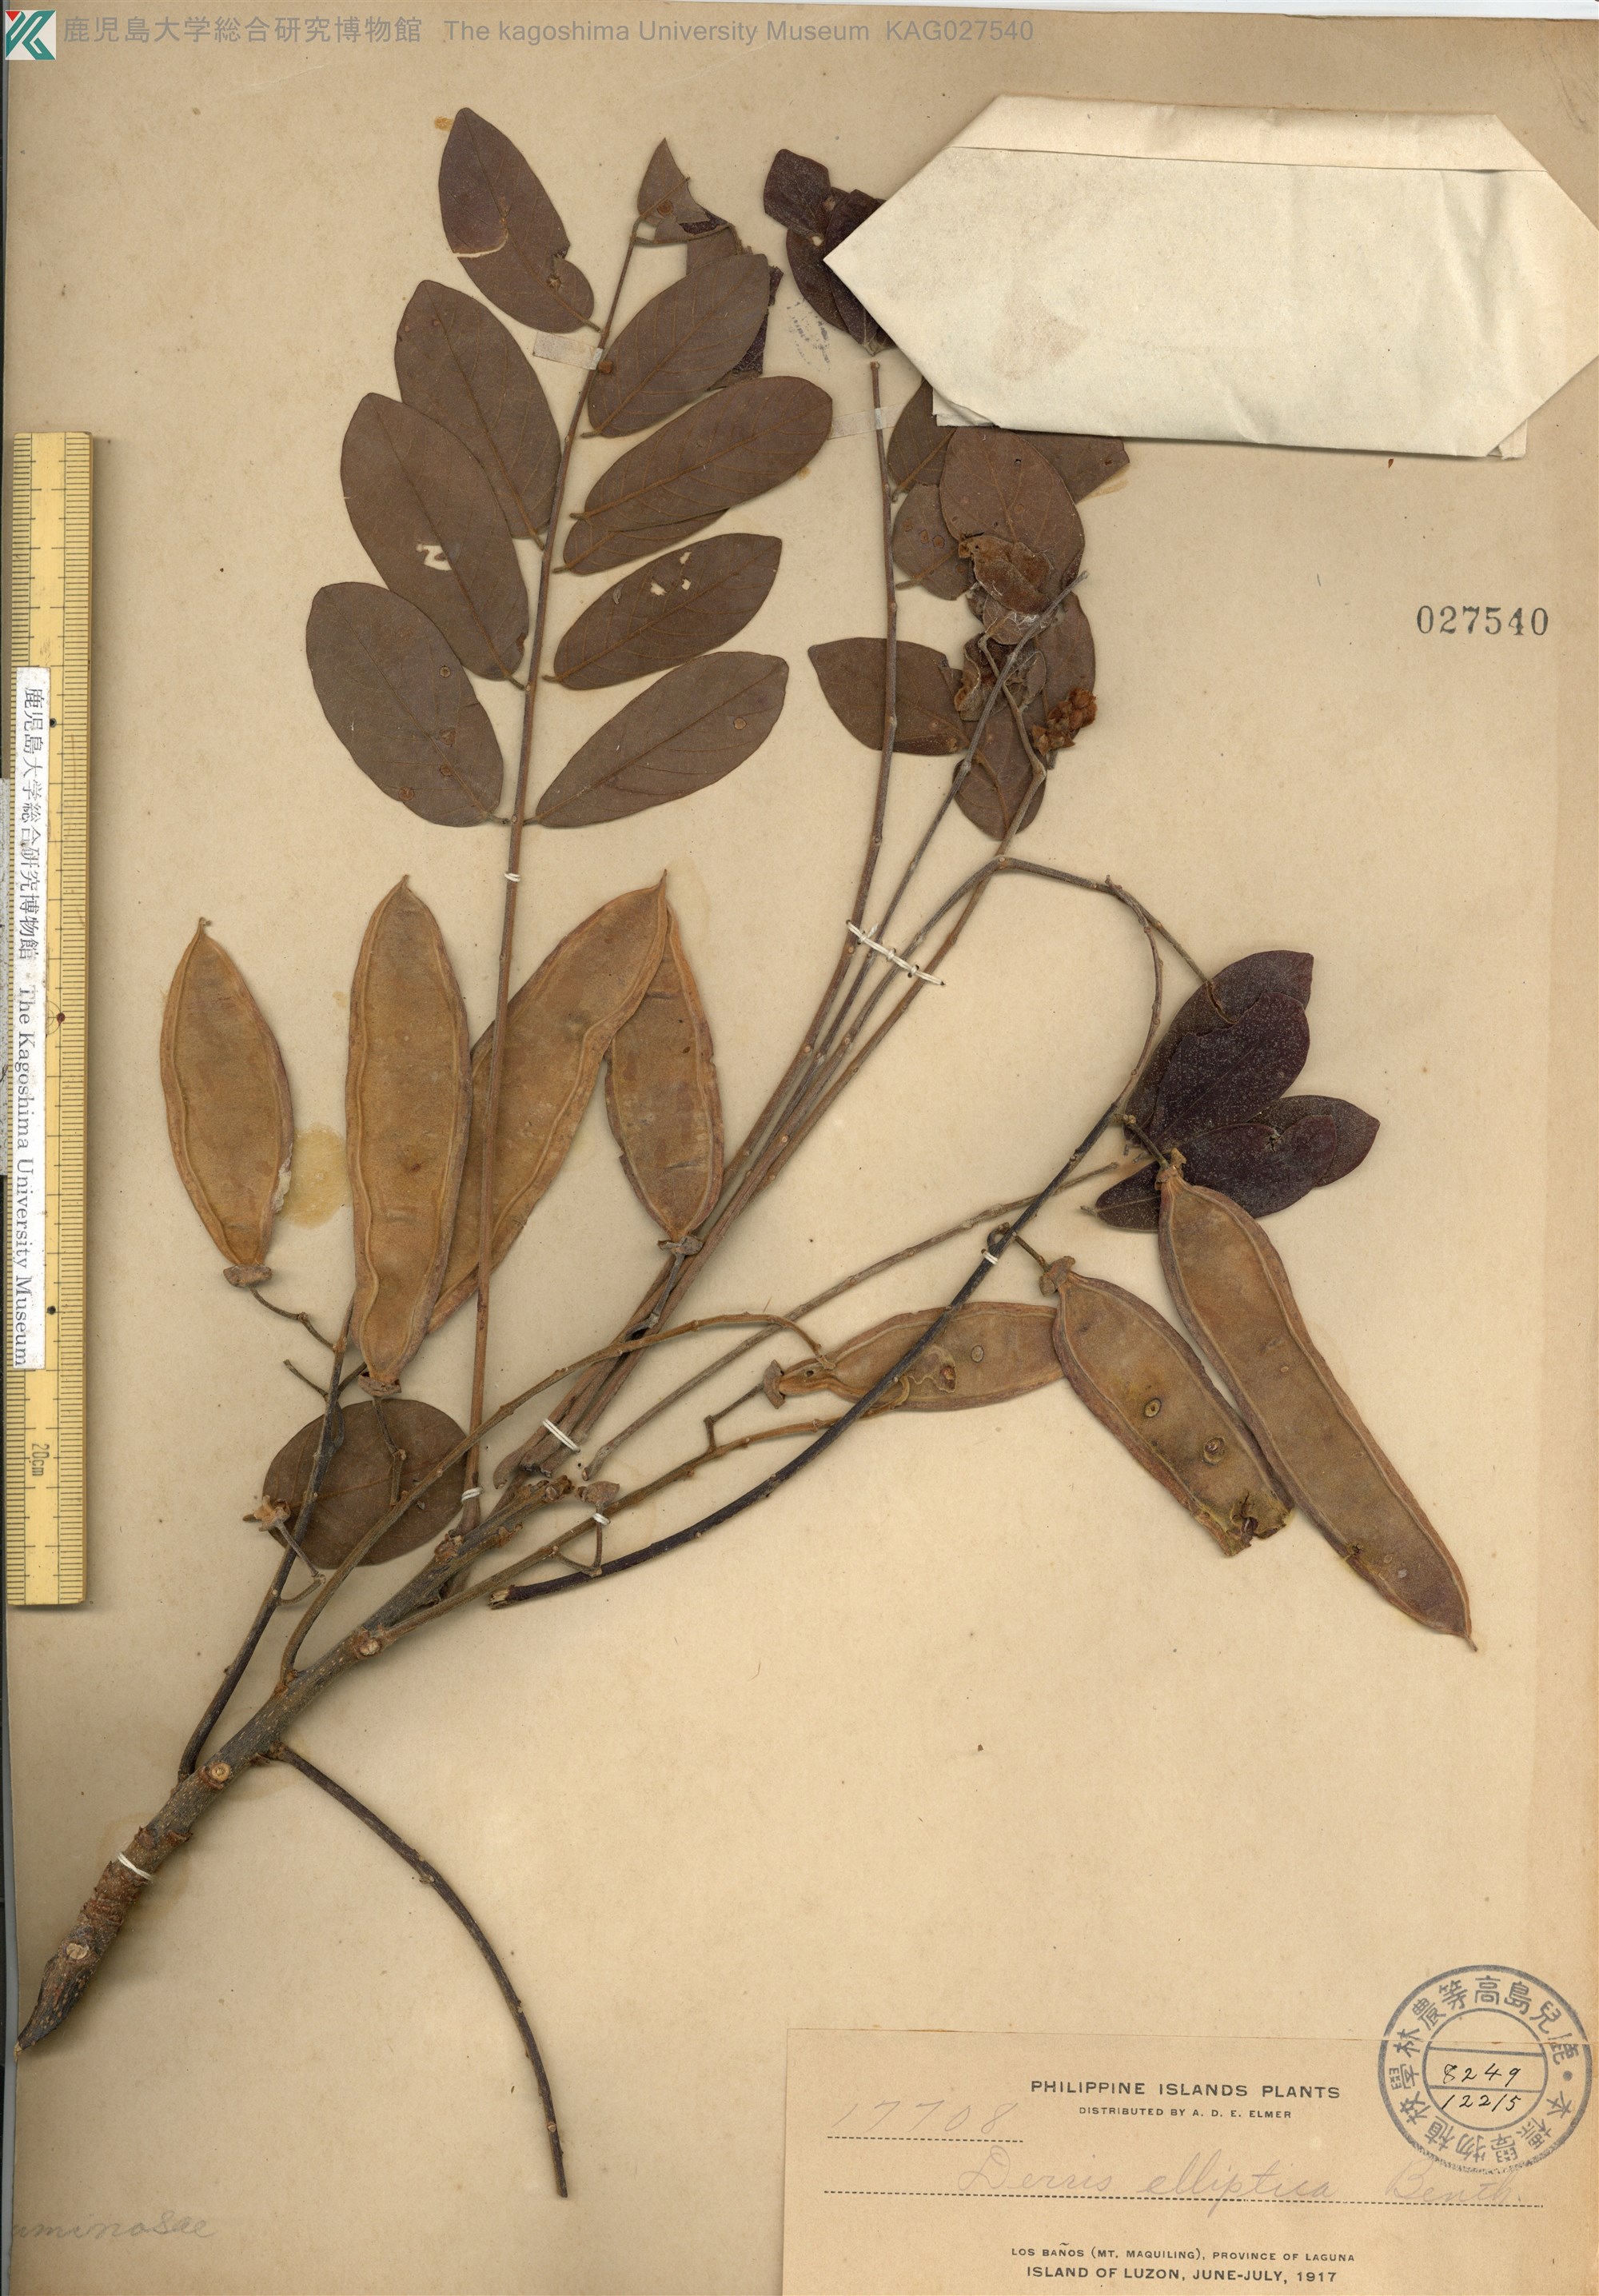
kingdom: Plantae
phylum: Tracheophyta
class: Magnoliopsida
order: Fabales
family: Fabaceae
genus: Derris
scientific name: Derris elliptica
